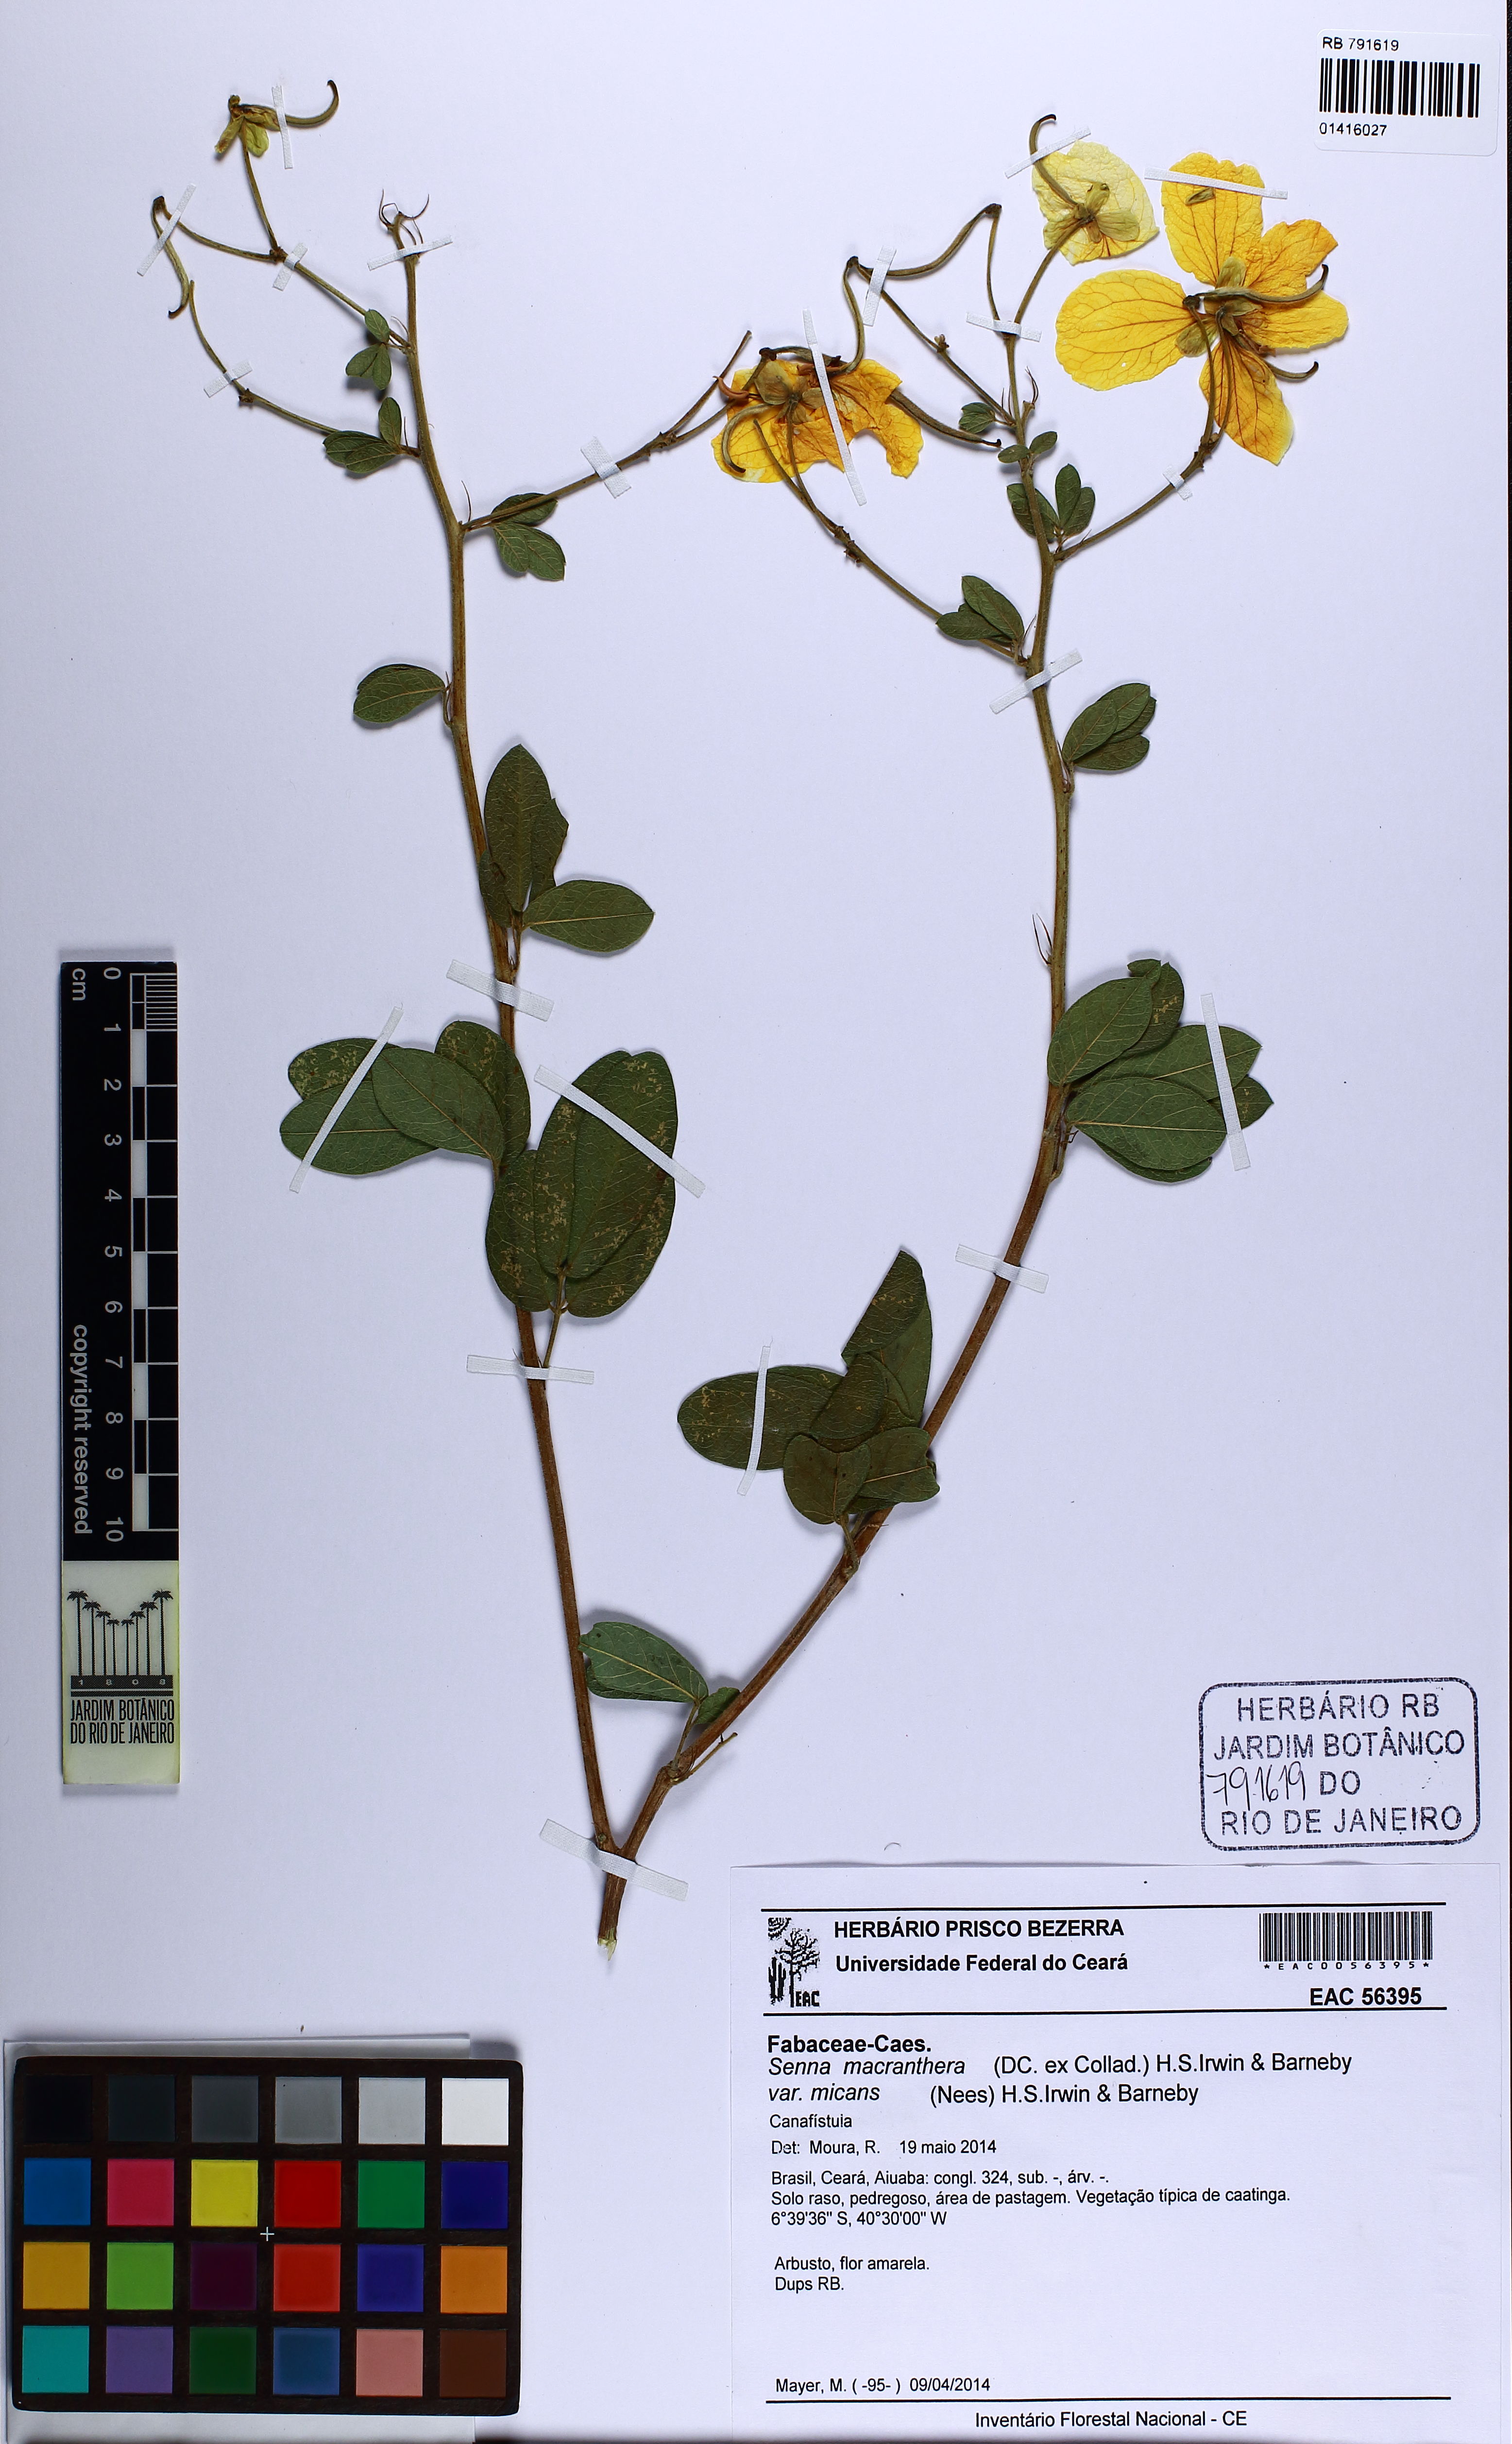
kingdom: Plantae
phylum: Tracheophyta
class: Magnoliopsida
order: Fabales
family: Fabaceae
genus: Senna
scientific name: Senna macranthera
